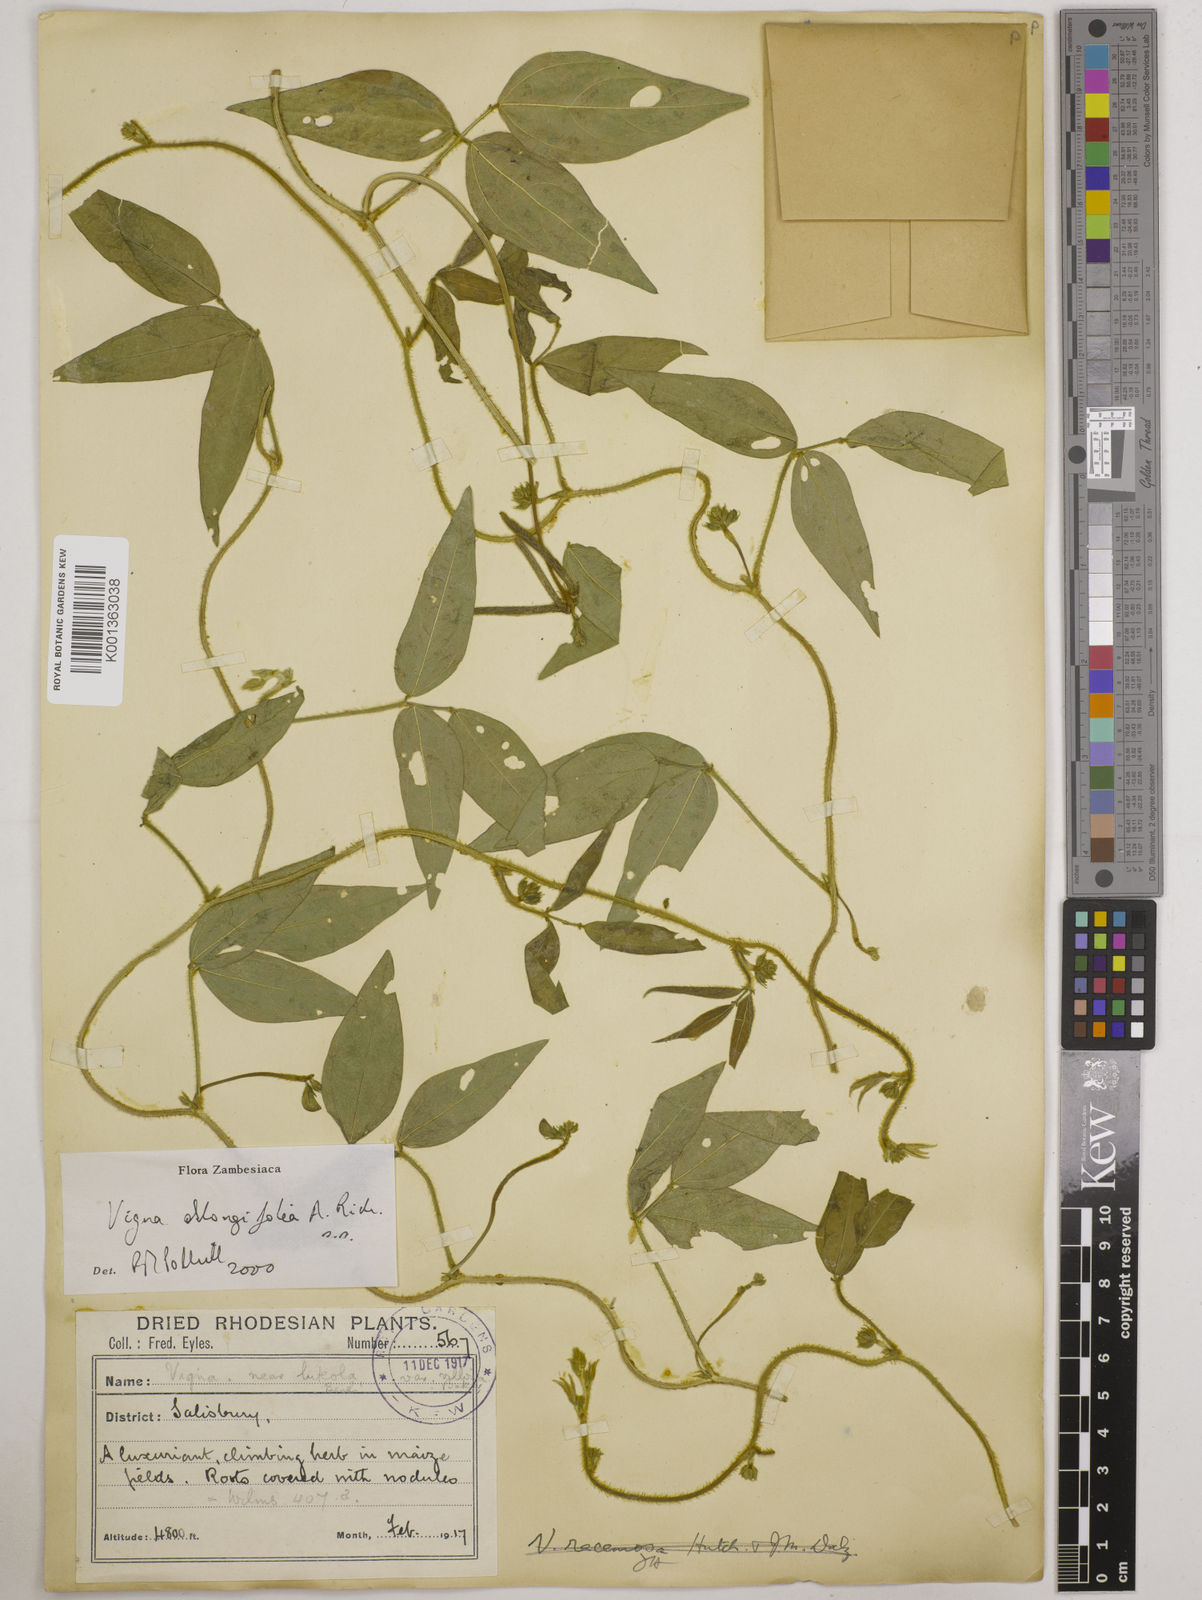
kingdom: Plantae
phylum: Tracheophyta
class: Magnoliopsida
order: Fabales
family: Fabaceae
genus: Vigna
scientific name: Vigna oblongifolia
